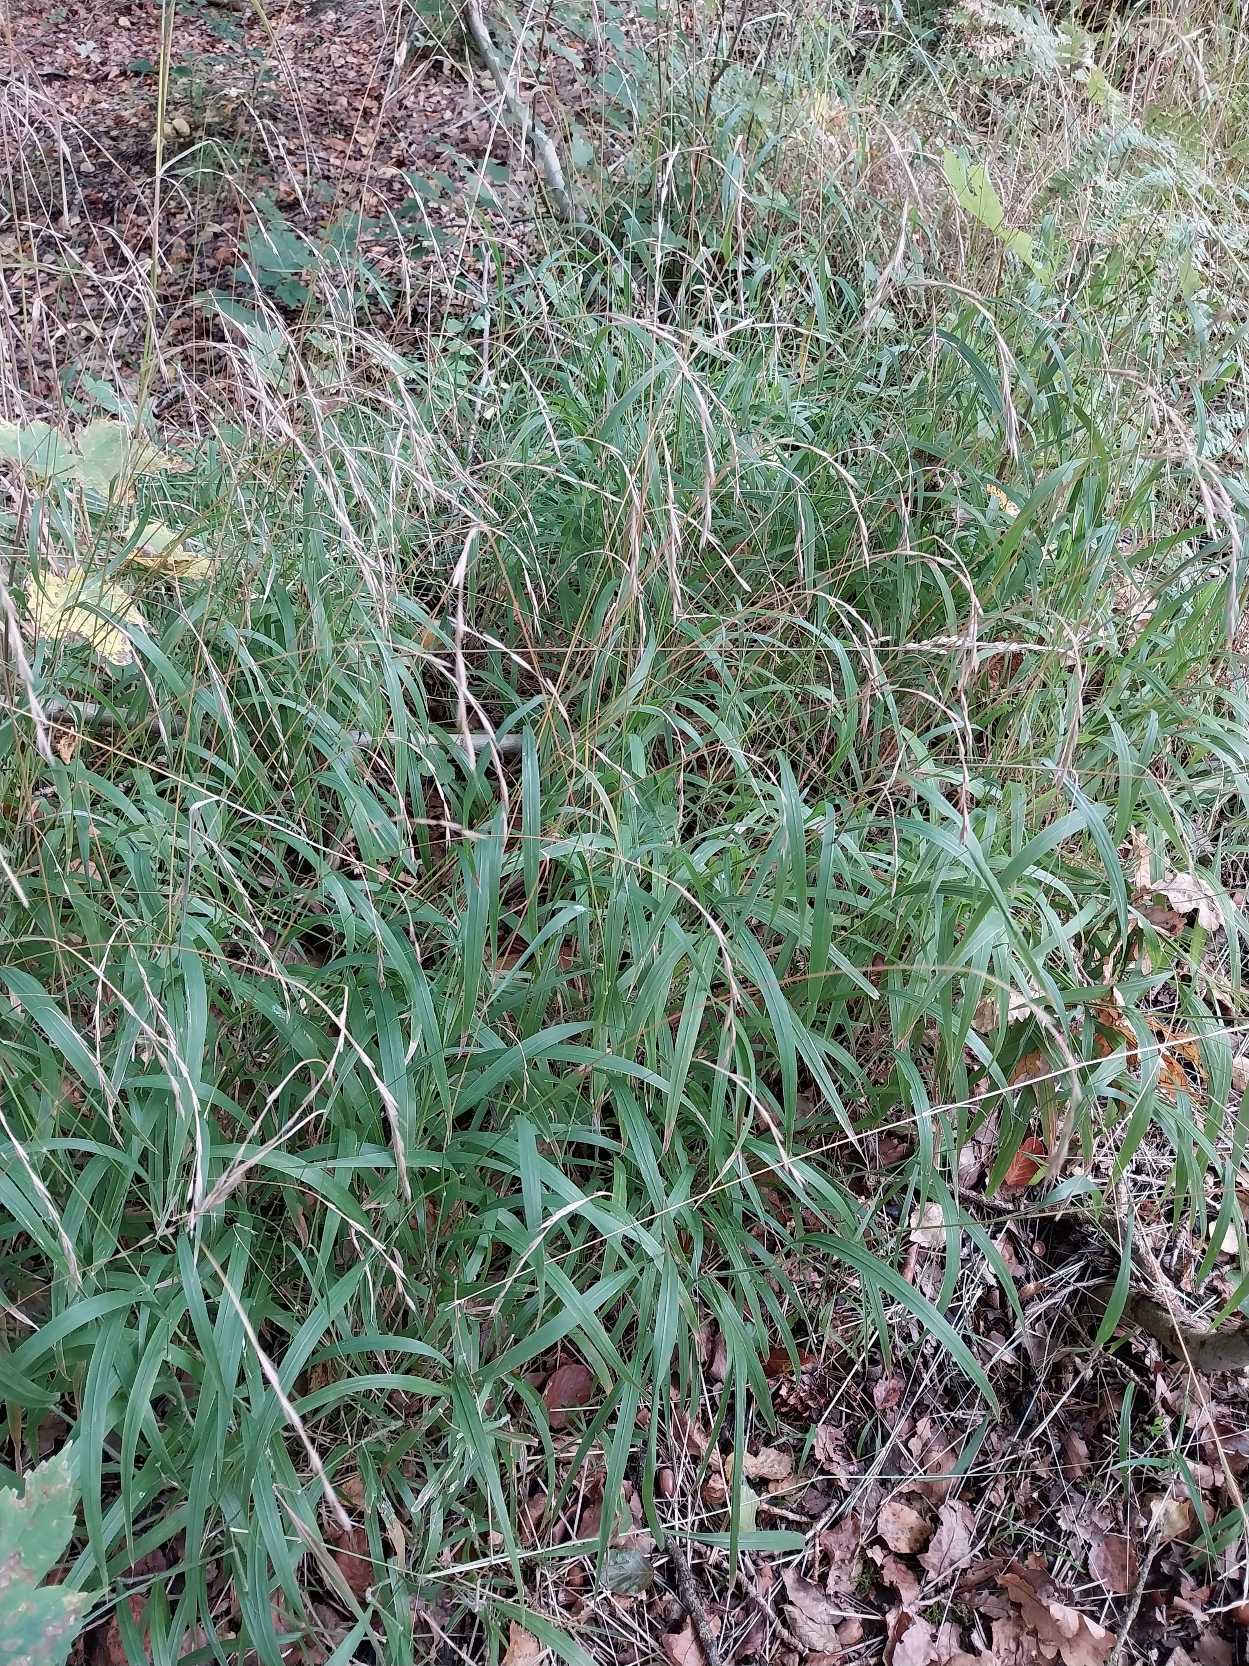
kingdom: Plantae
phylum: Tracheophyta
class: Liliopsida
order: Poales
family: Poaceae
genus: Brachypodium
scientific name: Brachypodium sylvaticum
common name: Skov-stilkaks
